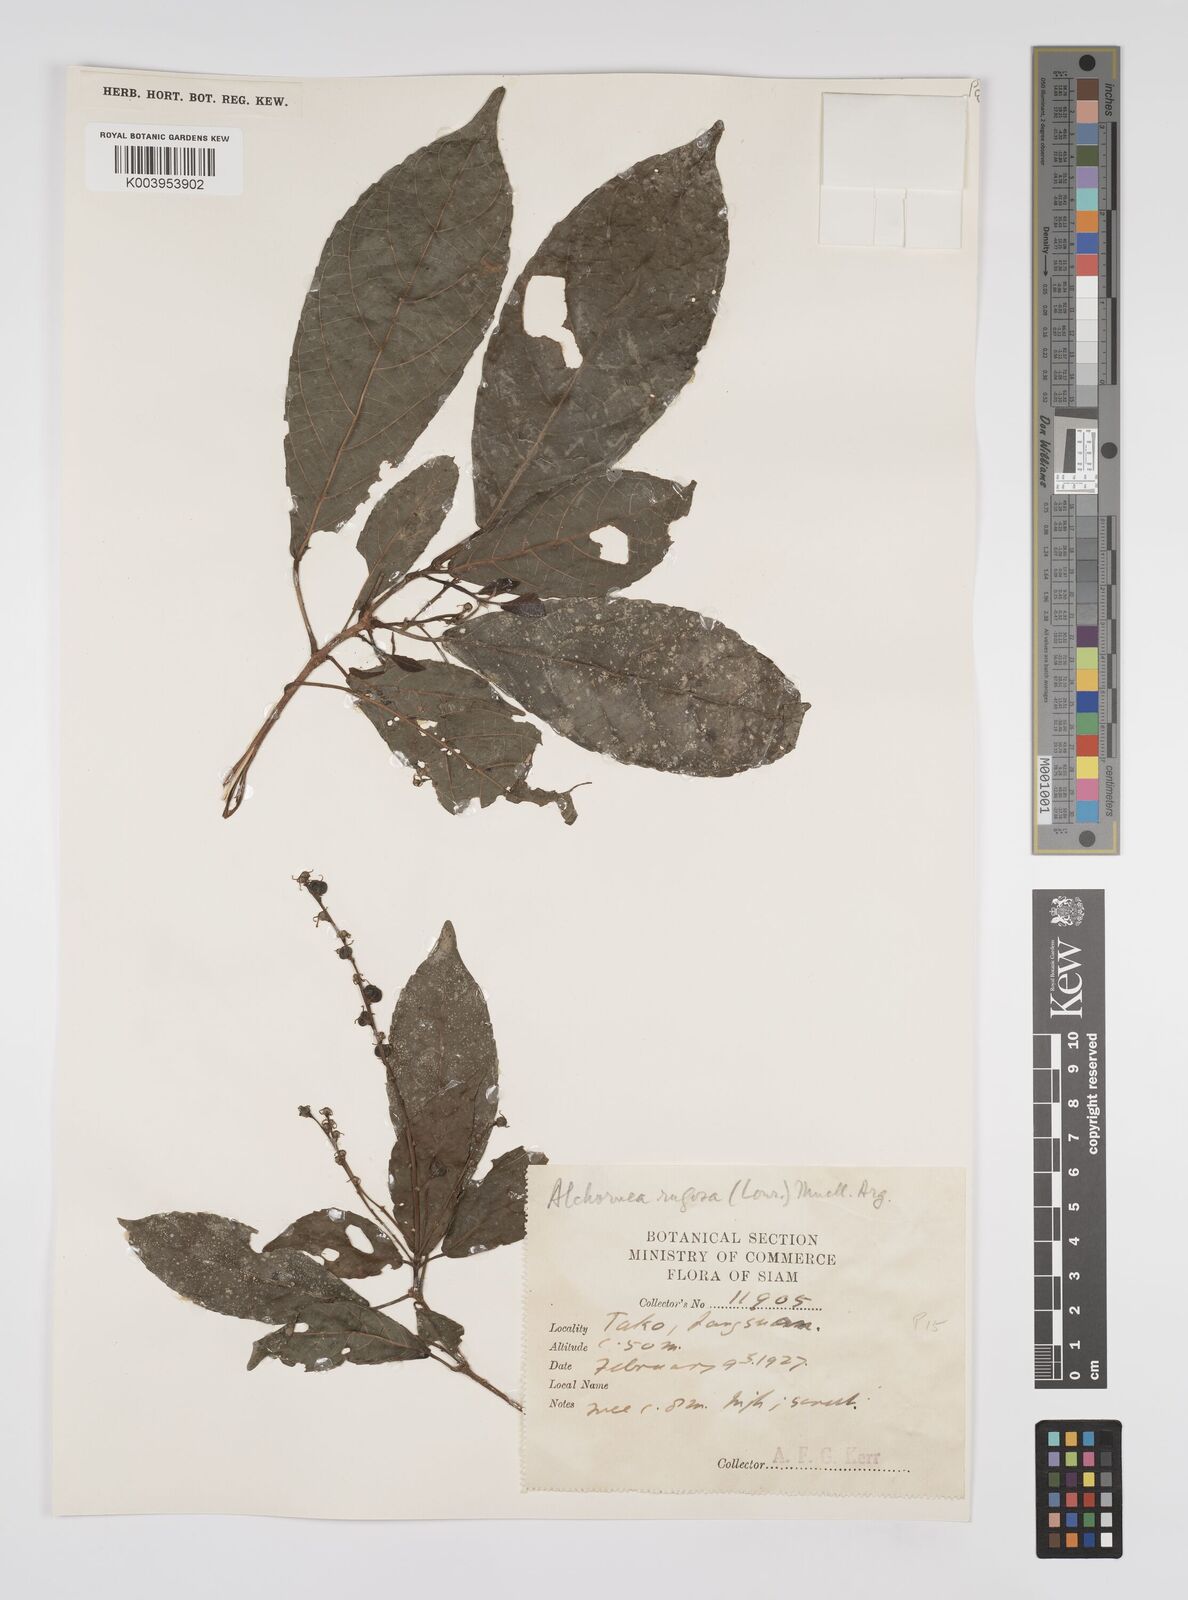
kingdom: Plantae
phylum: Tracheophyta
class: Magnoliopsida
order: Malpighiales
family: Euphorbiaceae
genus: Alchornea
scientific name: Alchornea rugosa
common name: Alchorntree
